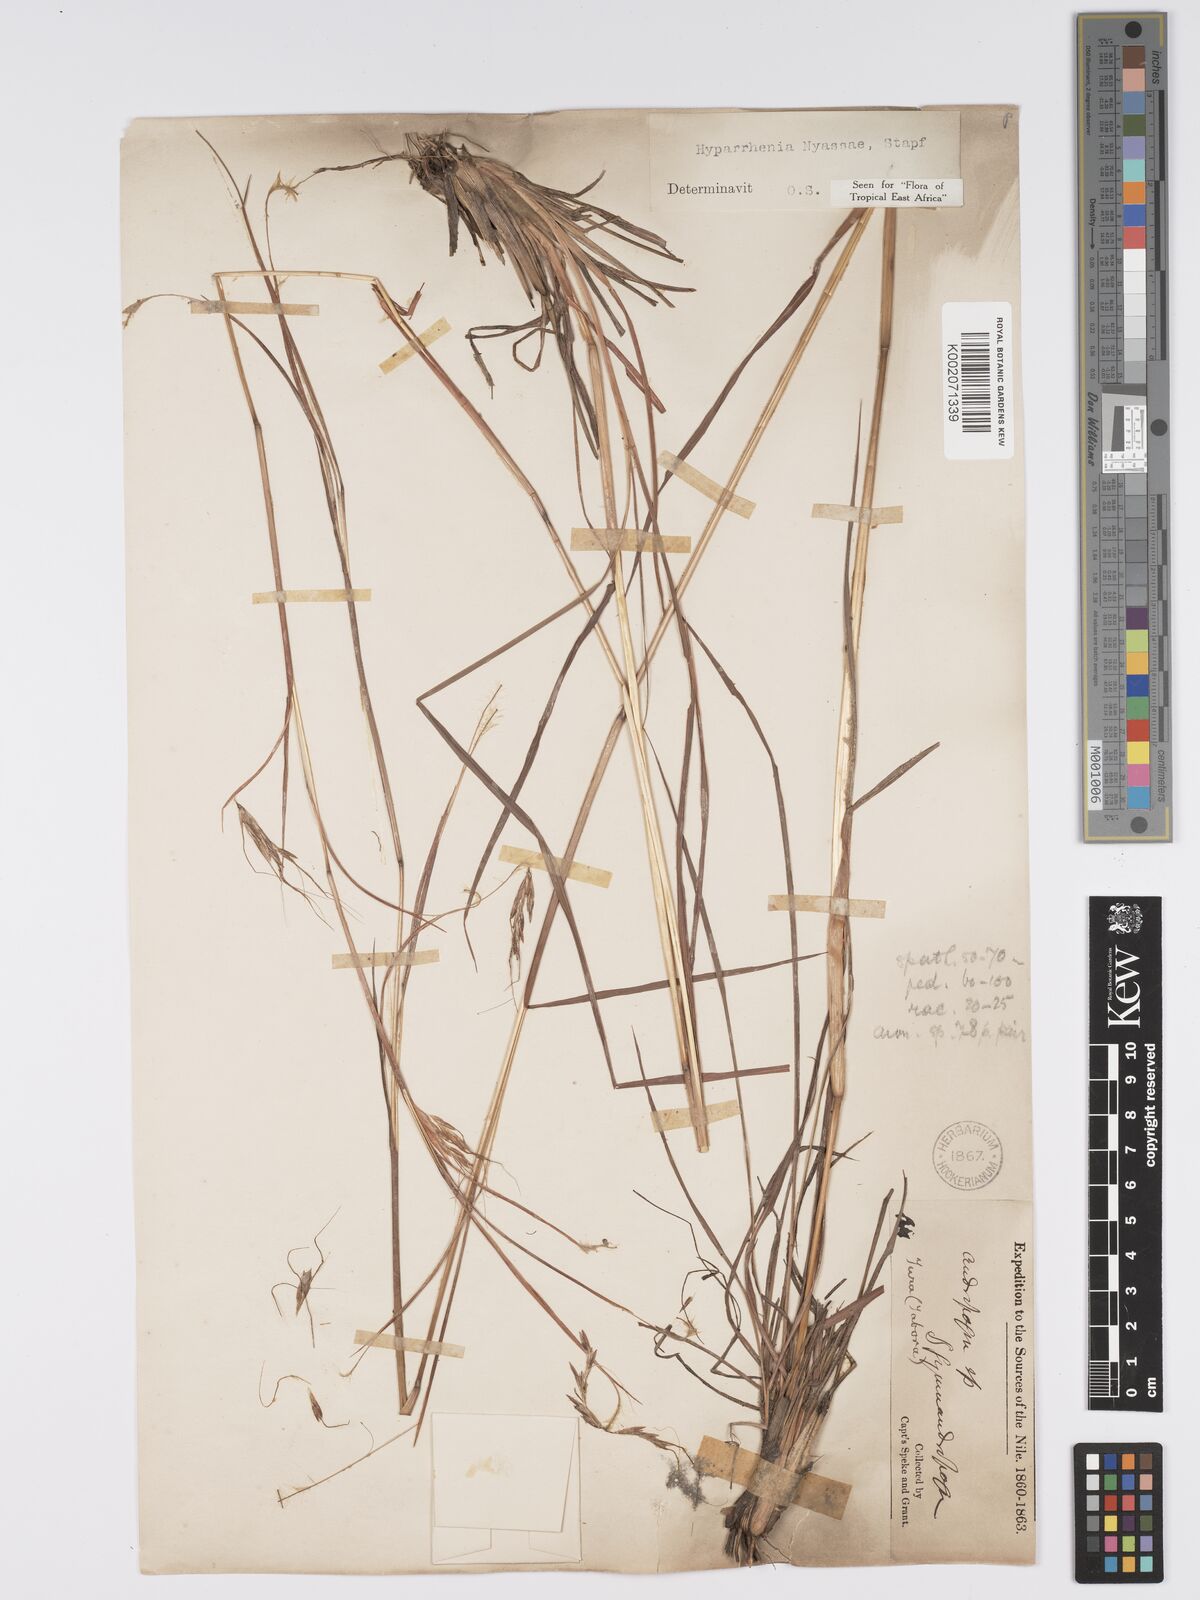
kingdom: Plantae
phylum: Tracheophyta
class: Liliopsida
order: Poales
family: Poaceae
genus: Hyparrhenia
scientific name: Hyparrhenia nyassae
